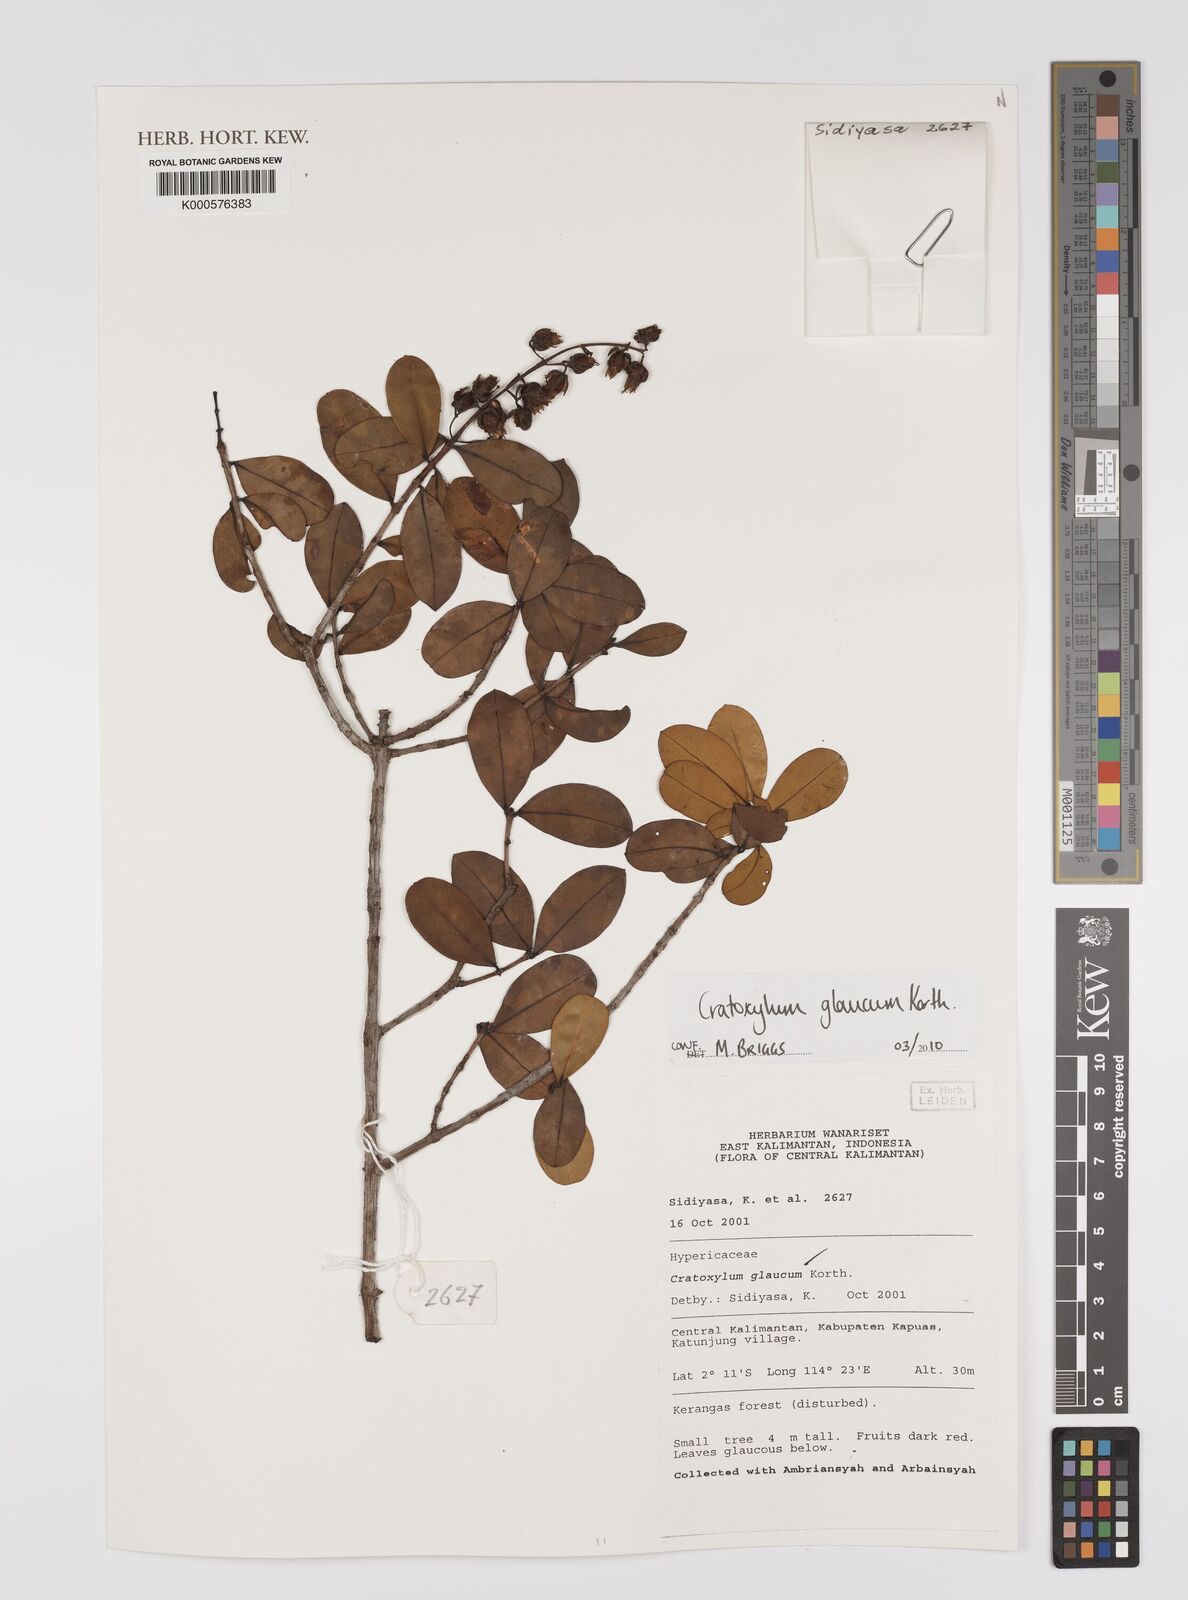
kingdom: Plantae
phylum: Tracheophyta
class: Magnoliopsida
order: Malpighiales
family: Hypericaceae
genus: Cratoxylum
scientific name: Cratoxylum glaucum
